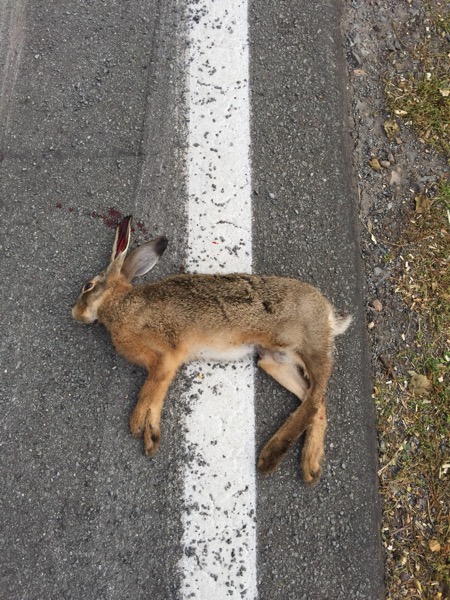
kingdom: Animalia
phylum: Chordata
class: Mammalia
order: Lagomorpha
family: Leporidae
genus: Lepus
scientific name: Lepus europaeus
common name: European hare
